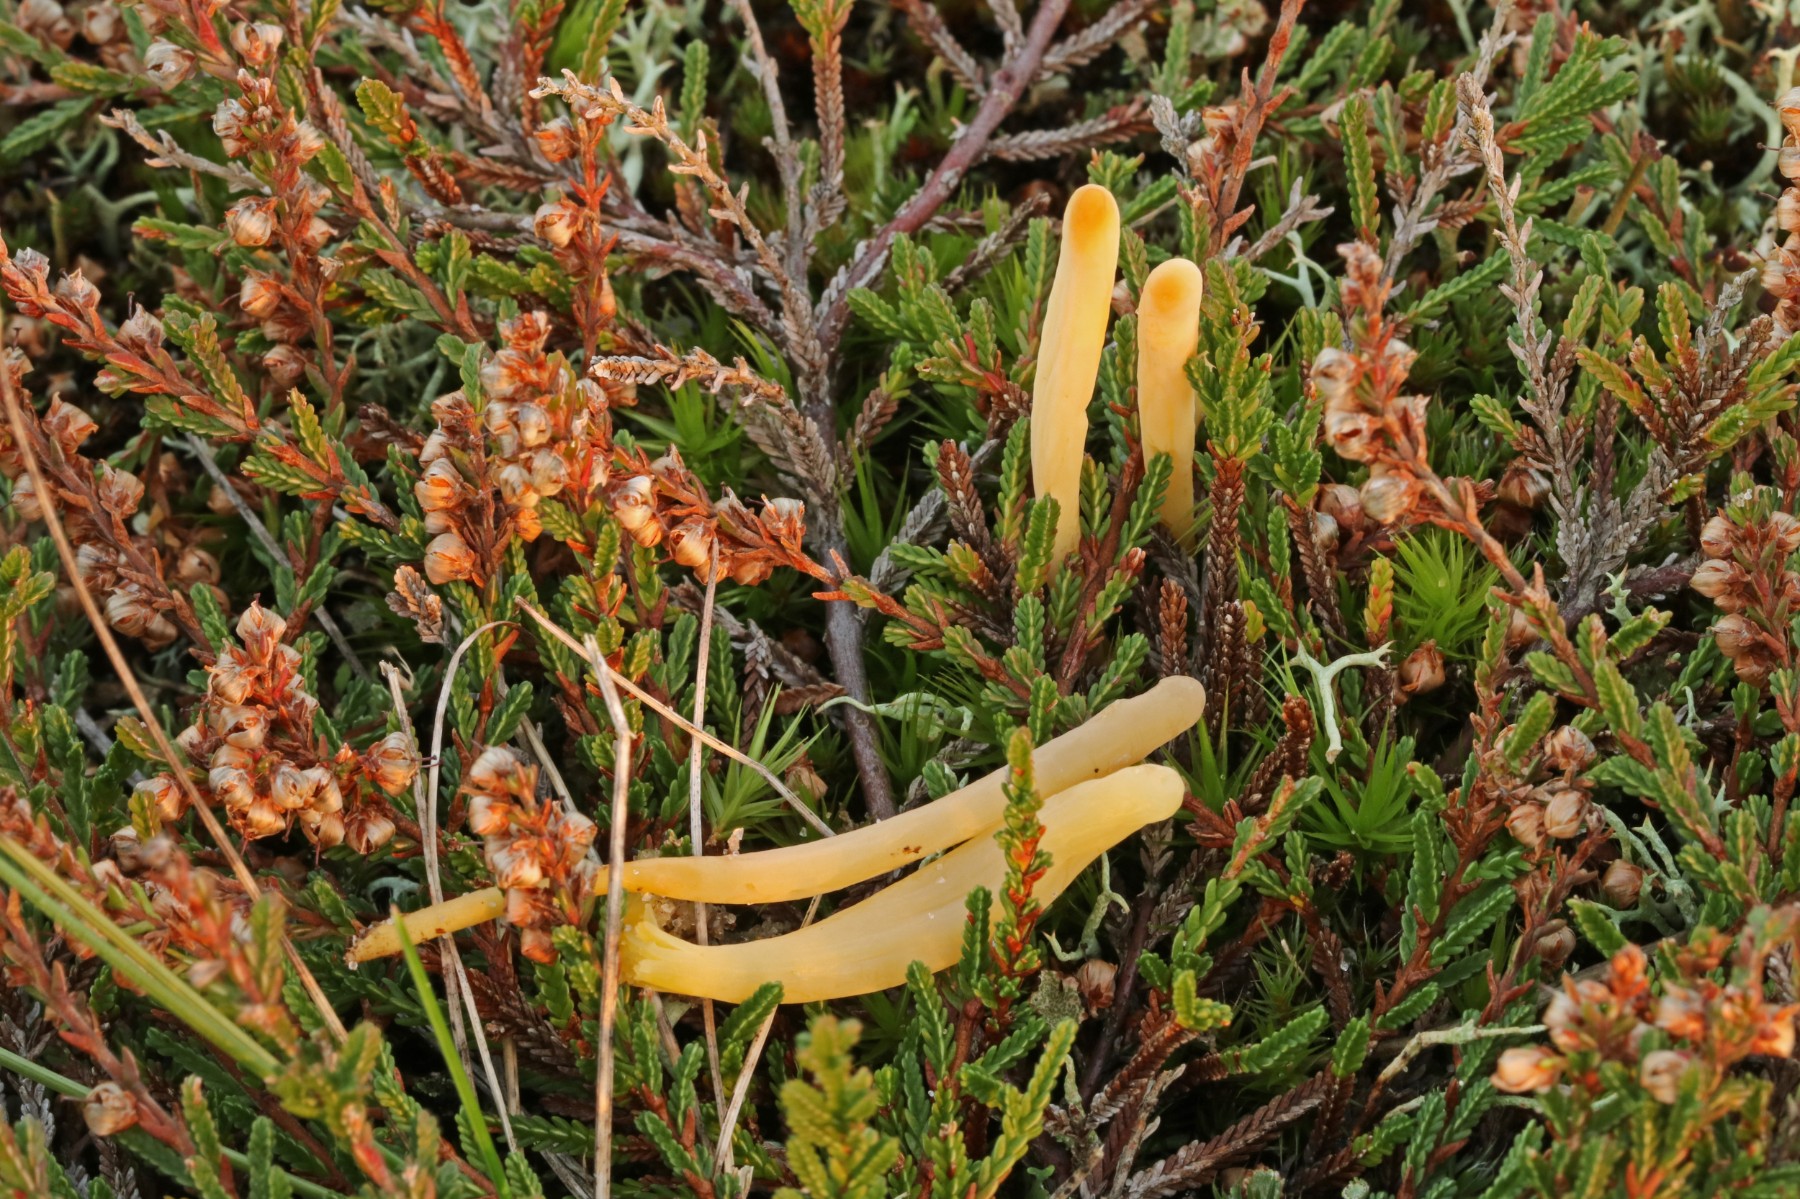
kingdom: Fungi
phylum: Basidiomycota
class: Agaricomycetes
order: Agaricales
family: Clavariaceae
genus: Clavaria
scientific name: Clavaria argillacea
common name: lerfarvet køllesvamp
